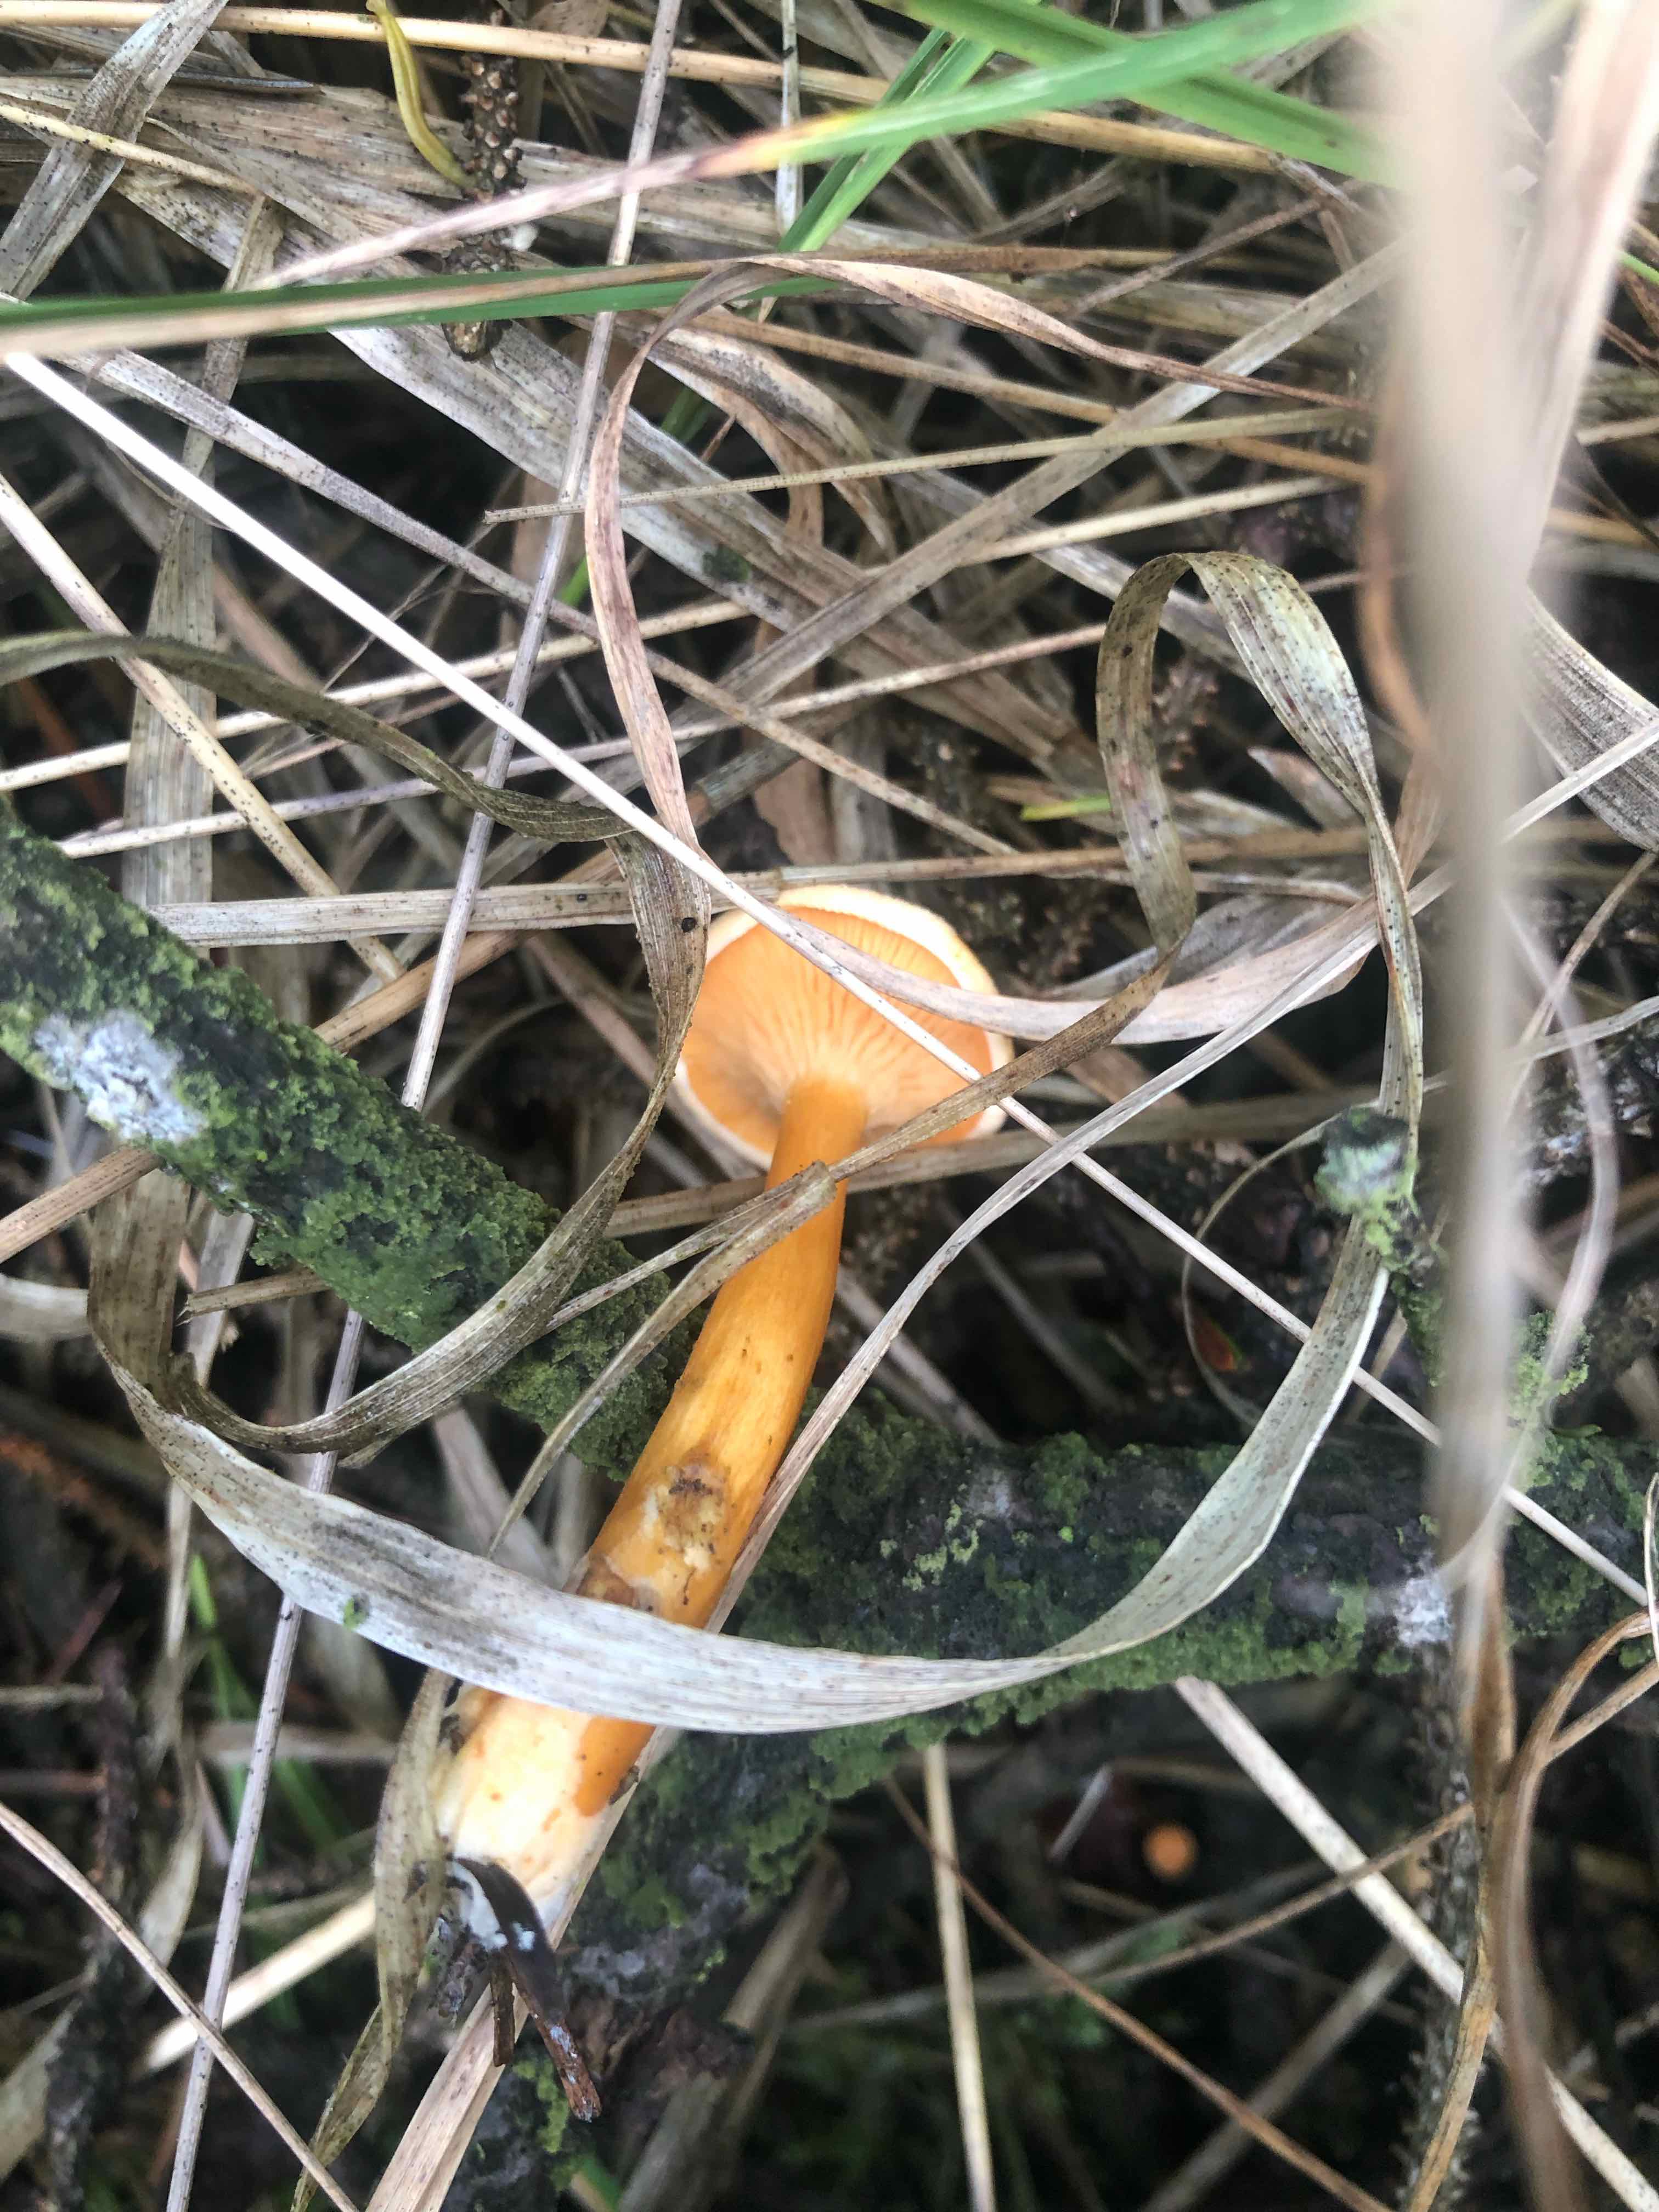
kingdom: Fungi
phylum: Basidiomycota
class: Agaricomycetes
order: Boletales
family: Hygrophoropsidaceae
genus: Hygrophoropsis
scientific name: Hygrophoropsis aurantiaca
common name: almindelig orangekantarel
